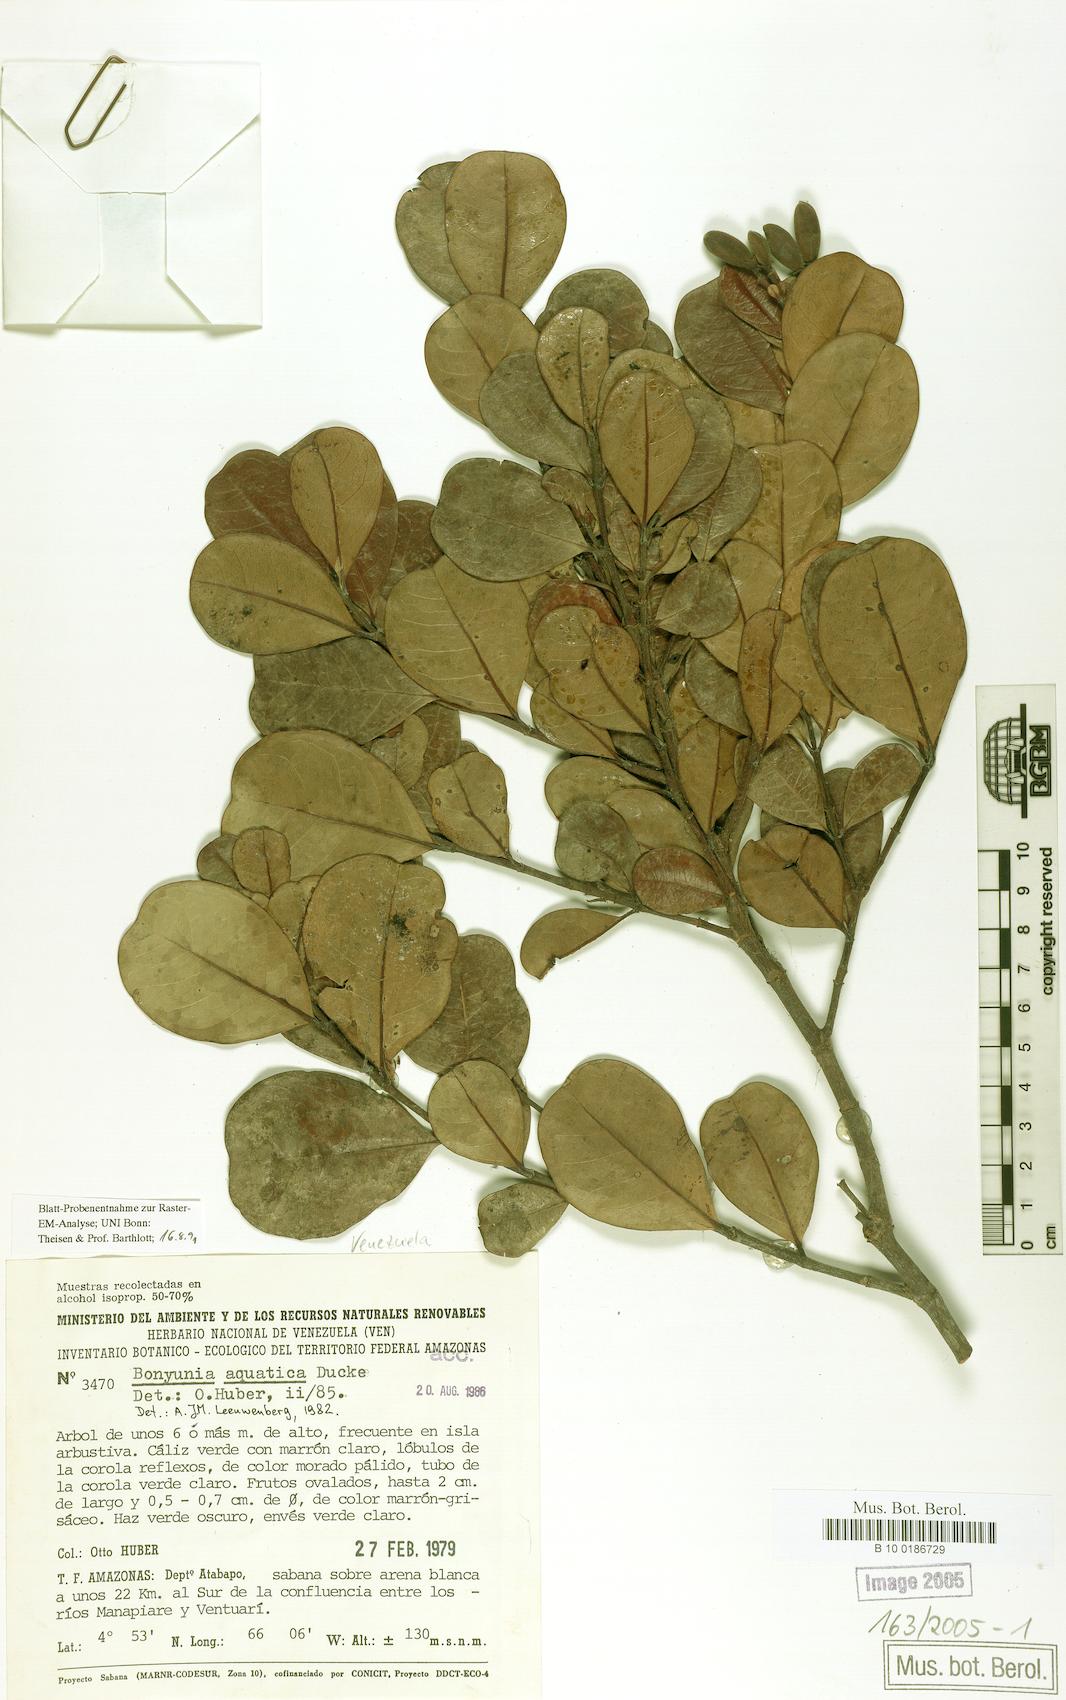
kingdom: Plantae
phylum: Tracheophyta
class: Magnoliopsida
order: Gentianales
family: Loganiaceae
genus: Bonyunia
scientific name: Bonyunia aquatica
